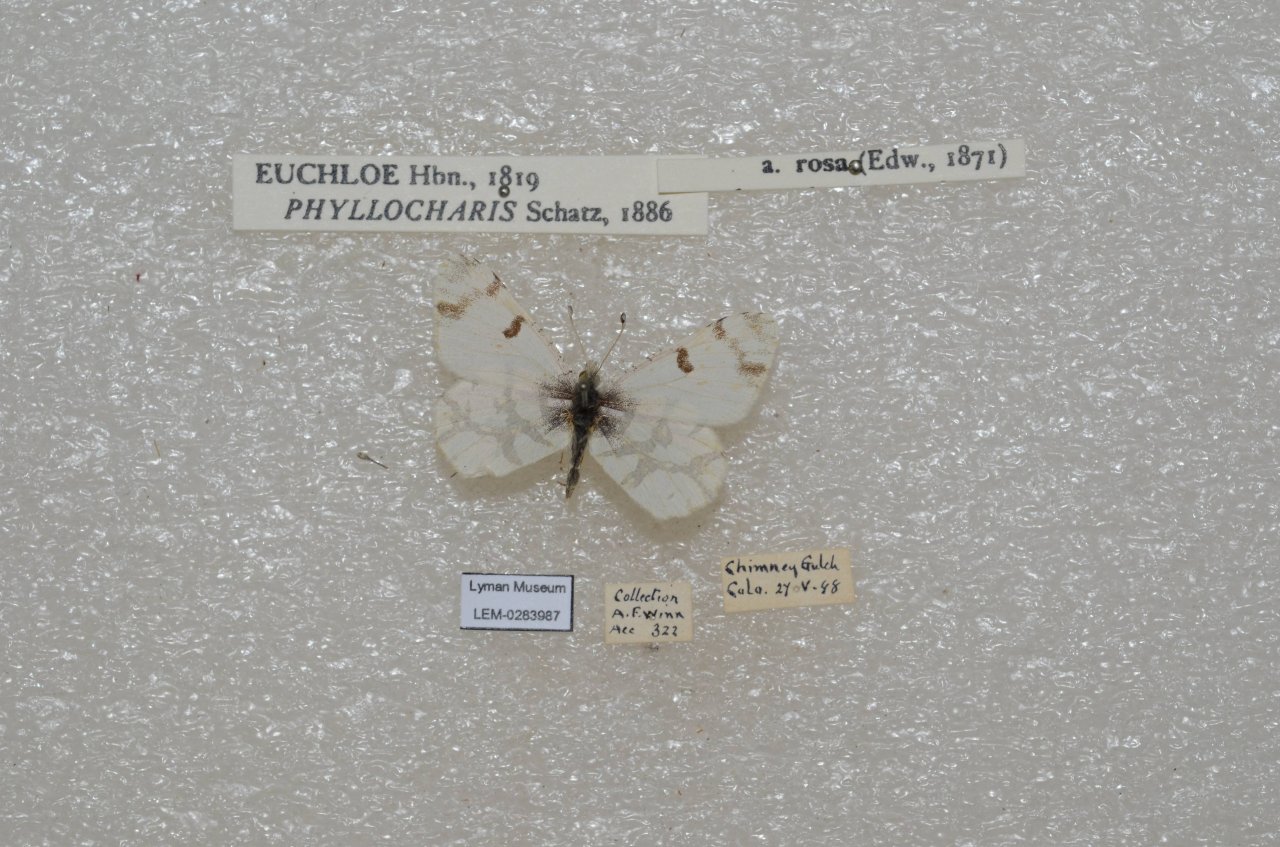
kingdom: Animalia
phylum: Arthropoda
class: Insecta
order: Lepidoptera
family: Pieridae
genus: Euchloe
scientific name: Euchloe olympia
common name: Olympia Marble
